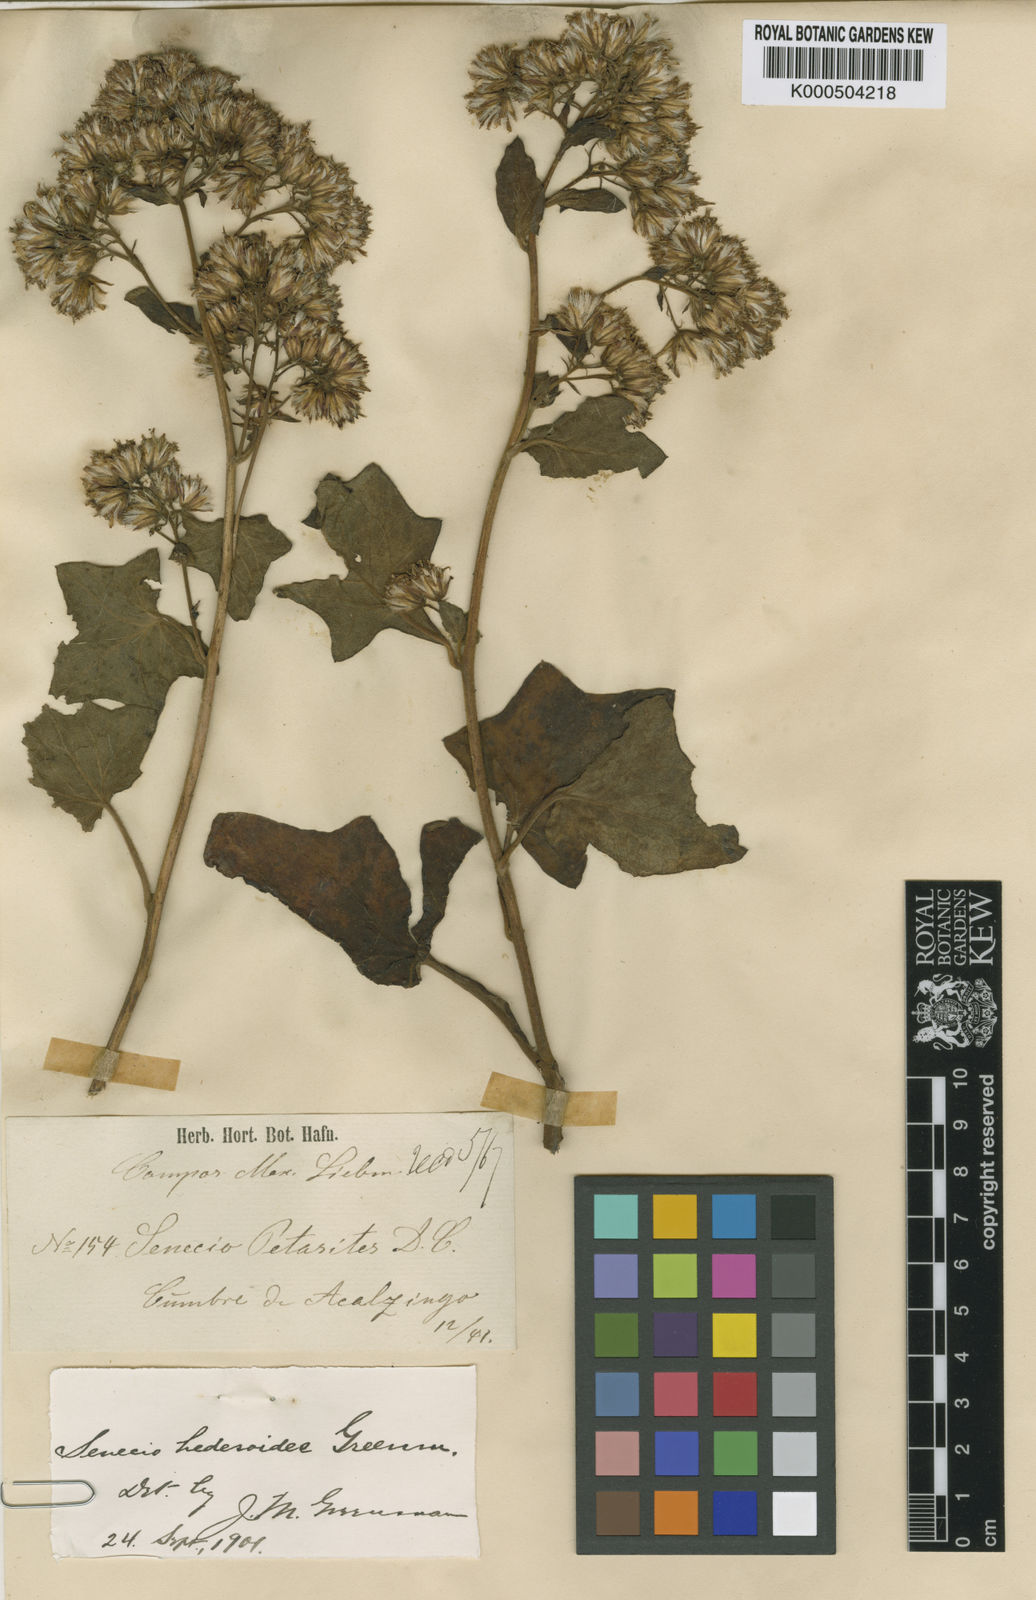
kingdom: Plantae
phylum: Tracheophyta
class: Magnoliopsida
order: Asterales
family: Asteraceae
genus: Roldana
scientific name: Roldana oaxacana
